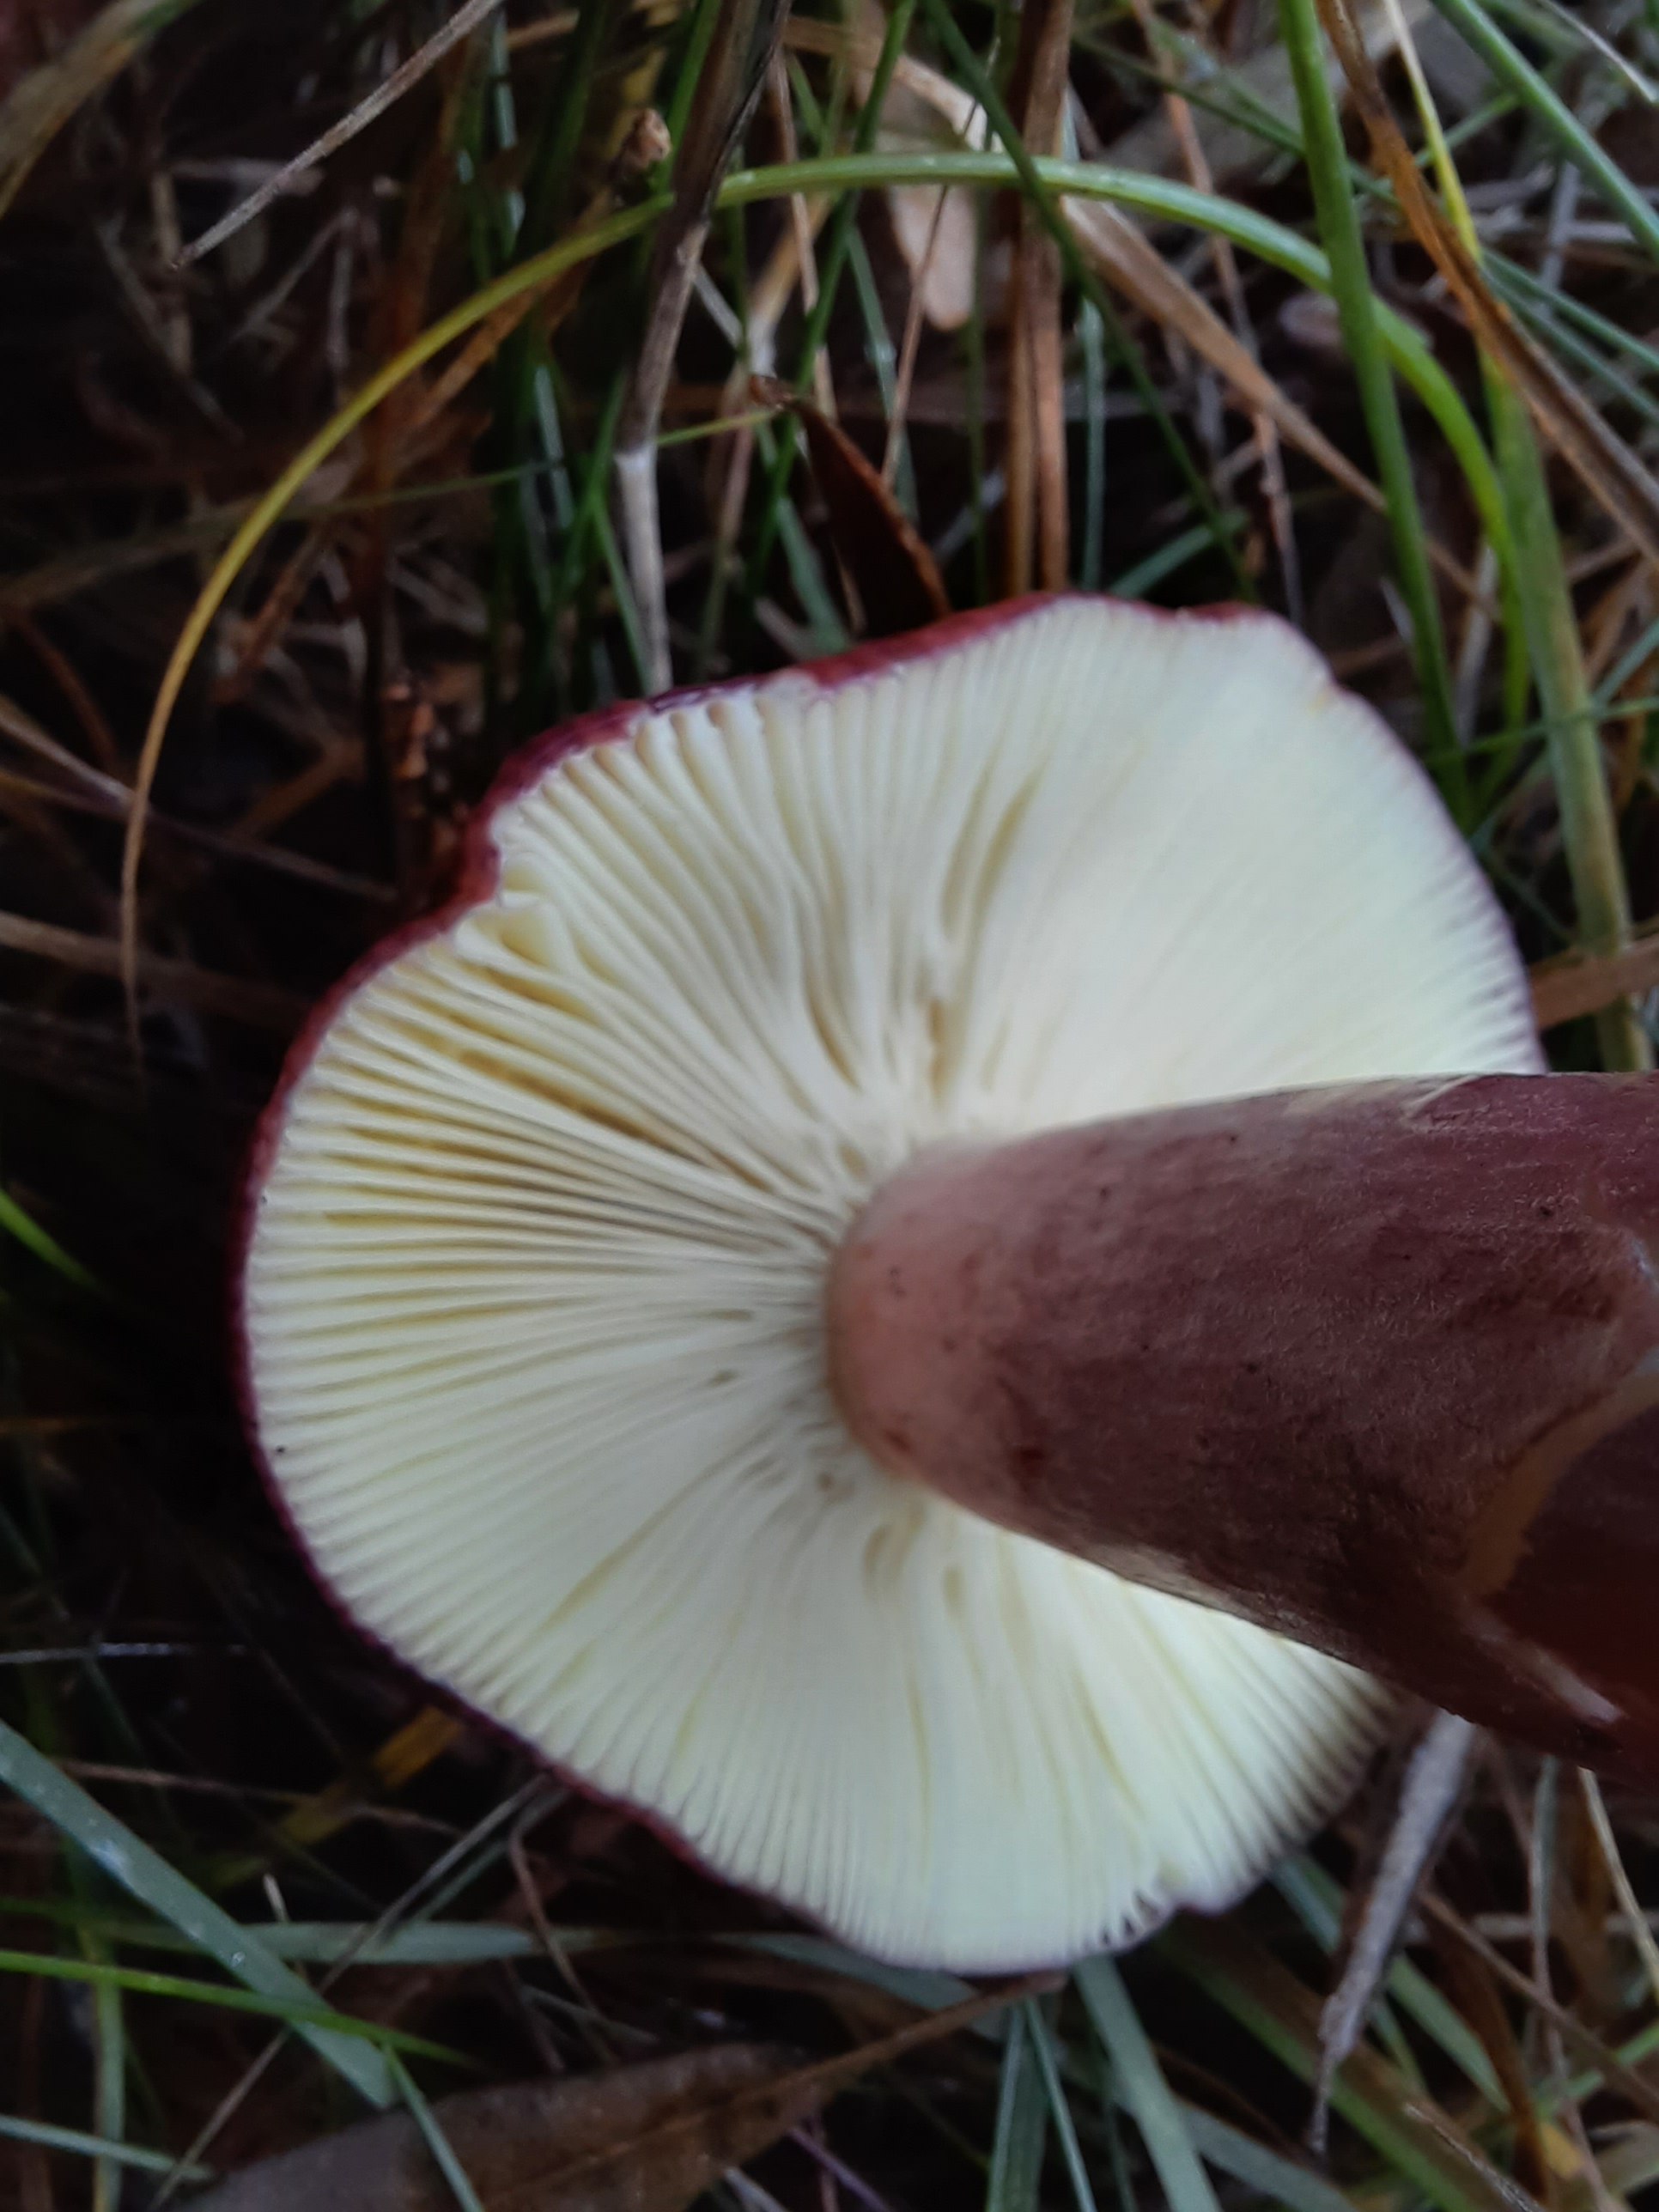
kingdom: Fungi
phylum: Basidiomycota
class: Agaricomycetes
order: Russulales
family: Russulaceae
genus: Russula
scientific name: Russula sardonia
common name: citronbladet skørhat
